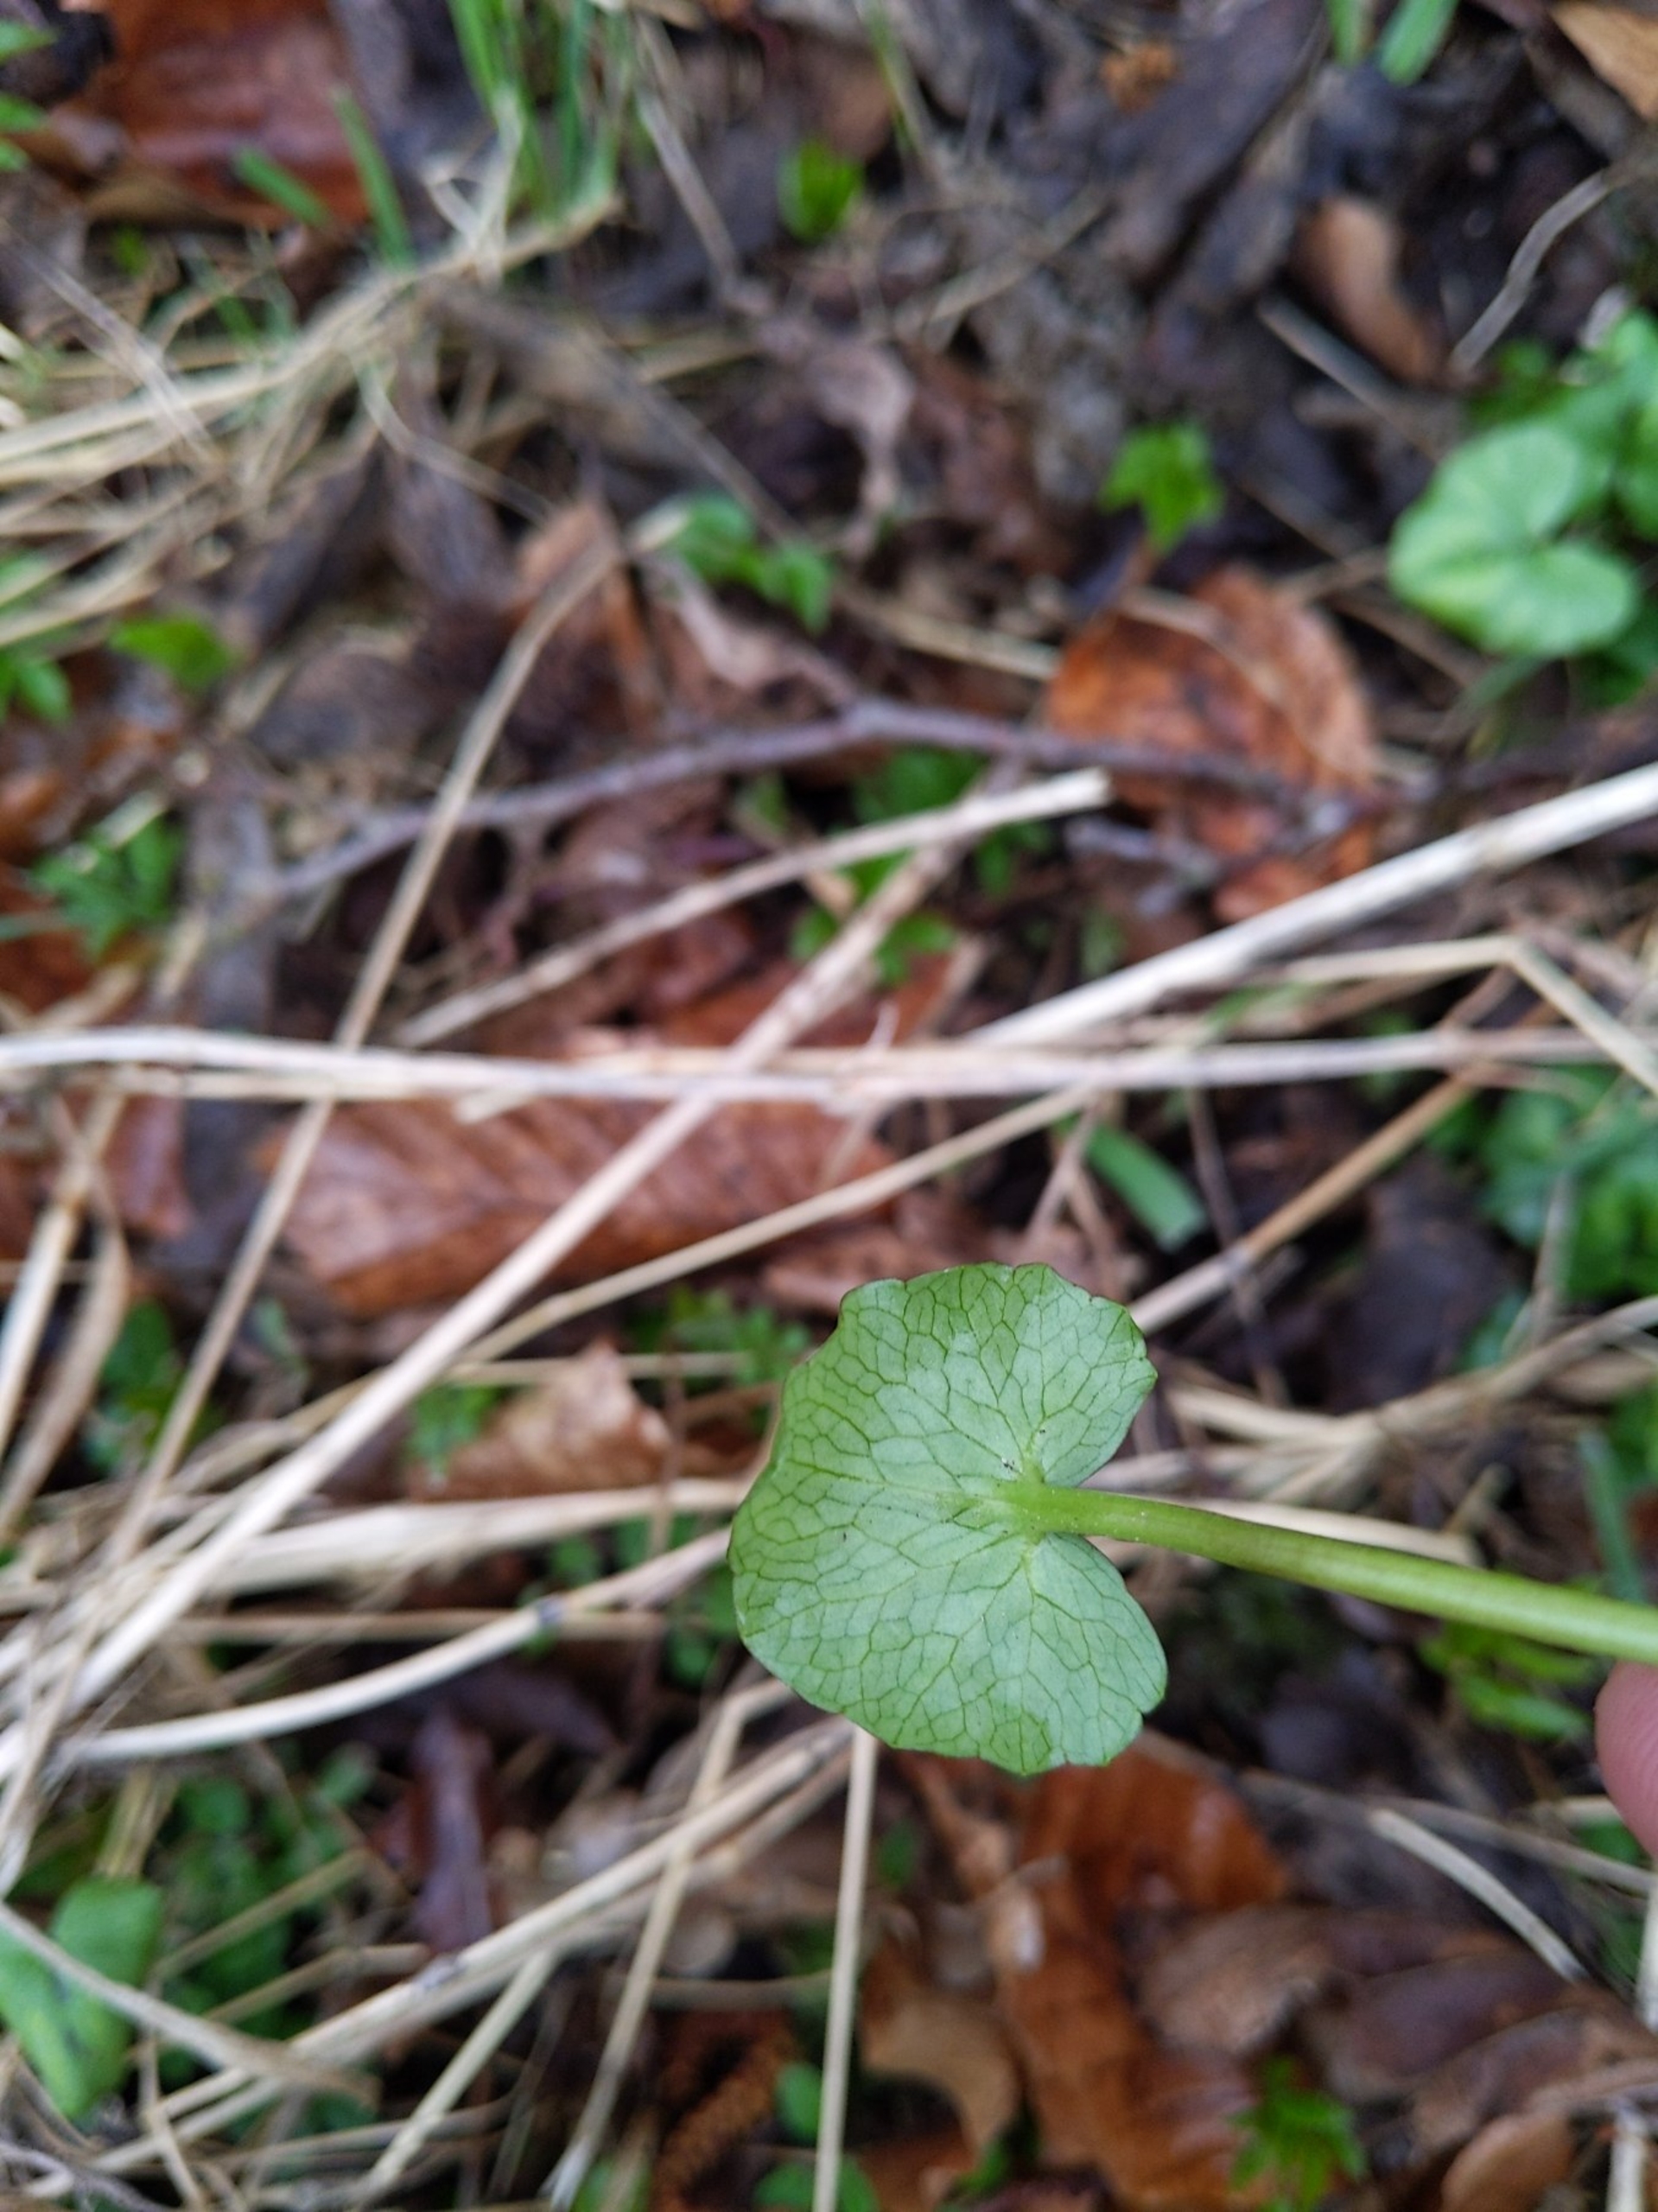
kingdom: Plantae
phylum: Tracheophyta
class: Magnoliopsida
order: Ranunculales
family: Ranunculaceae
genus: Ficaria
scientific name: Ficaria verna
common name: Vorterod
